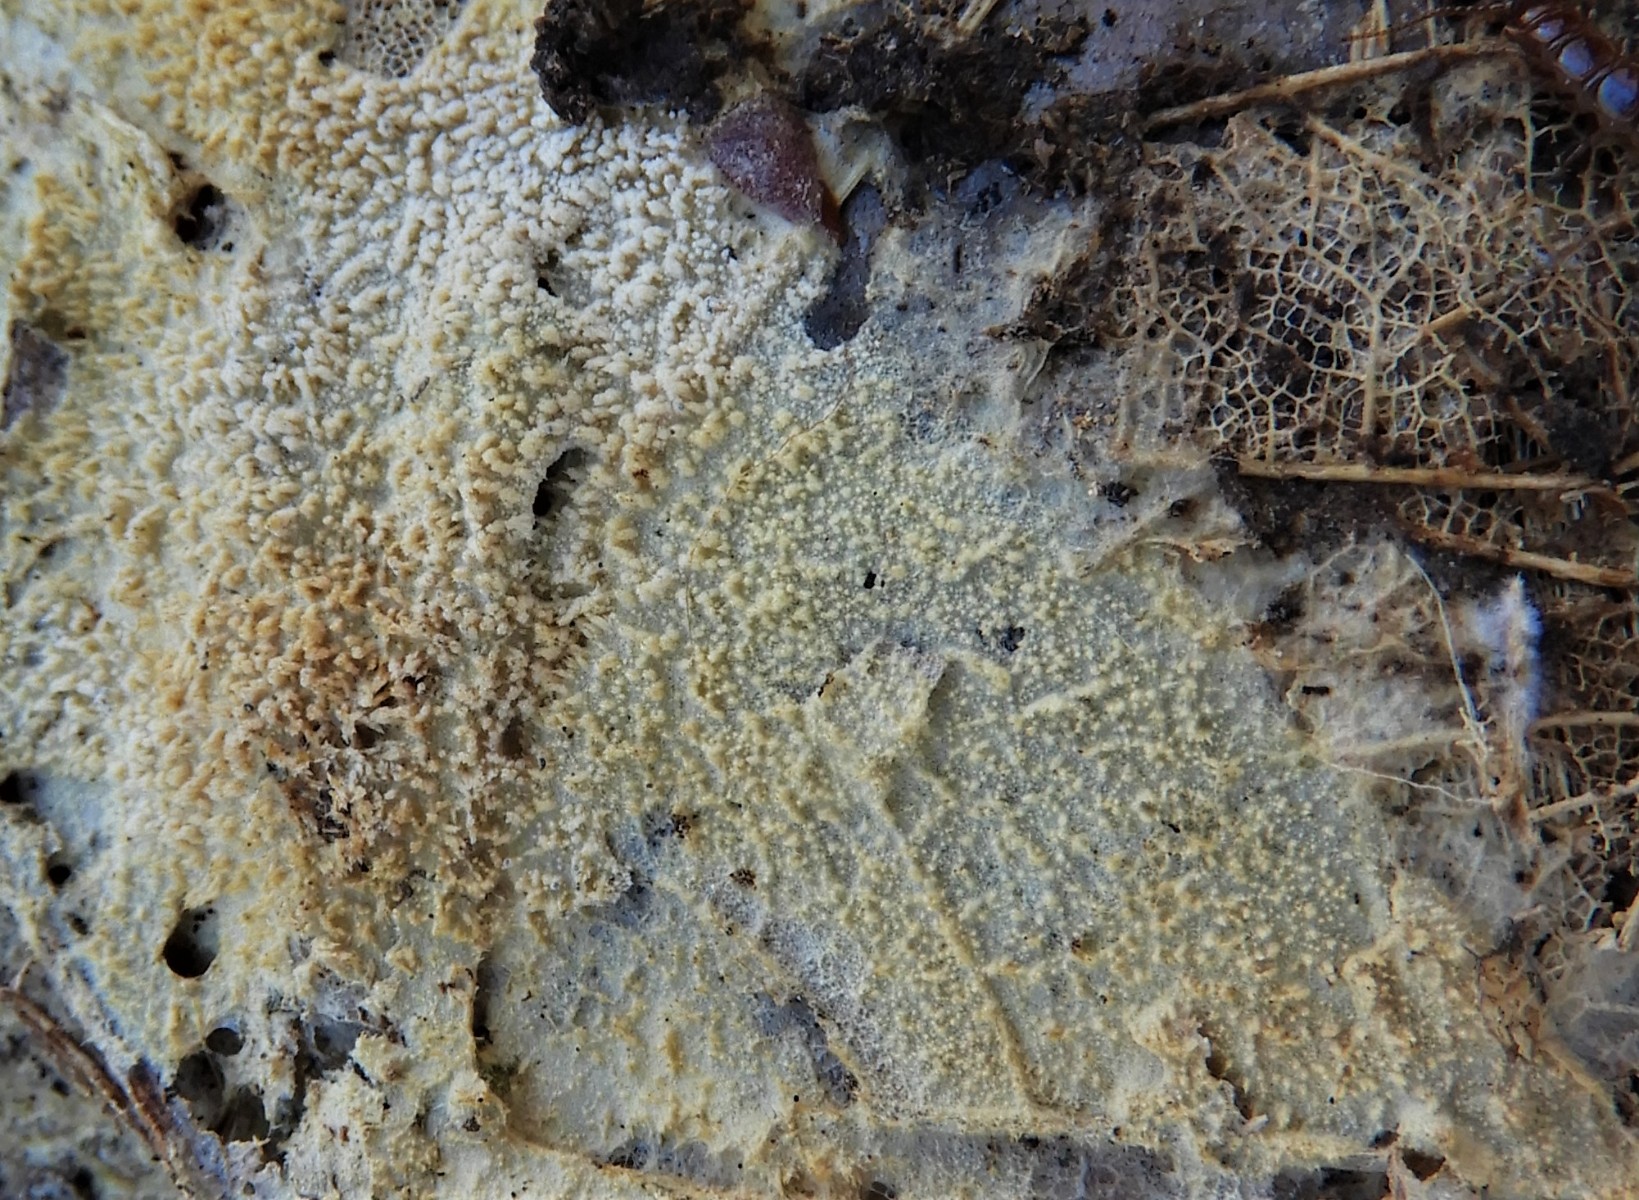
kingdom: Fungi
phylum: Basidiomycota
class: Agaricomycetes
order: Corticiales
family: Corticiaceae
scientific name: Corticiaceae
